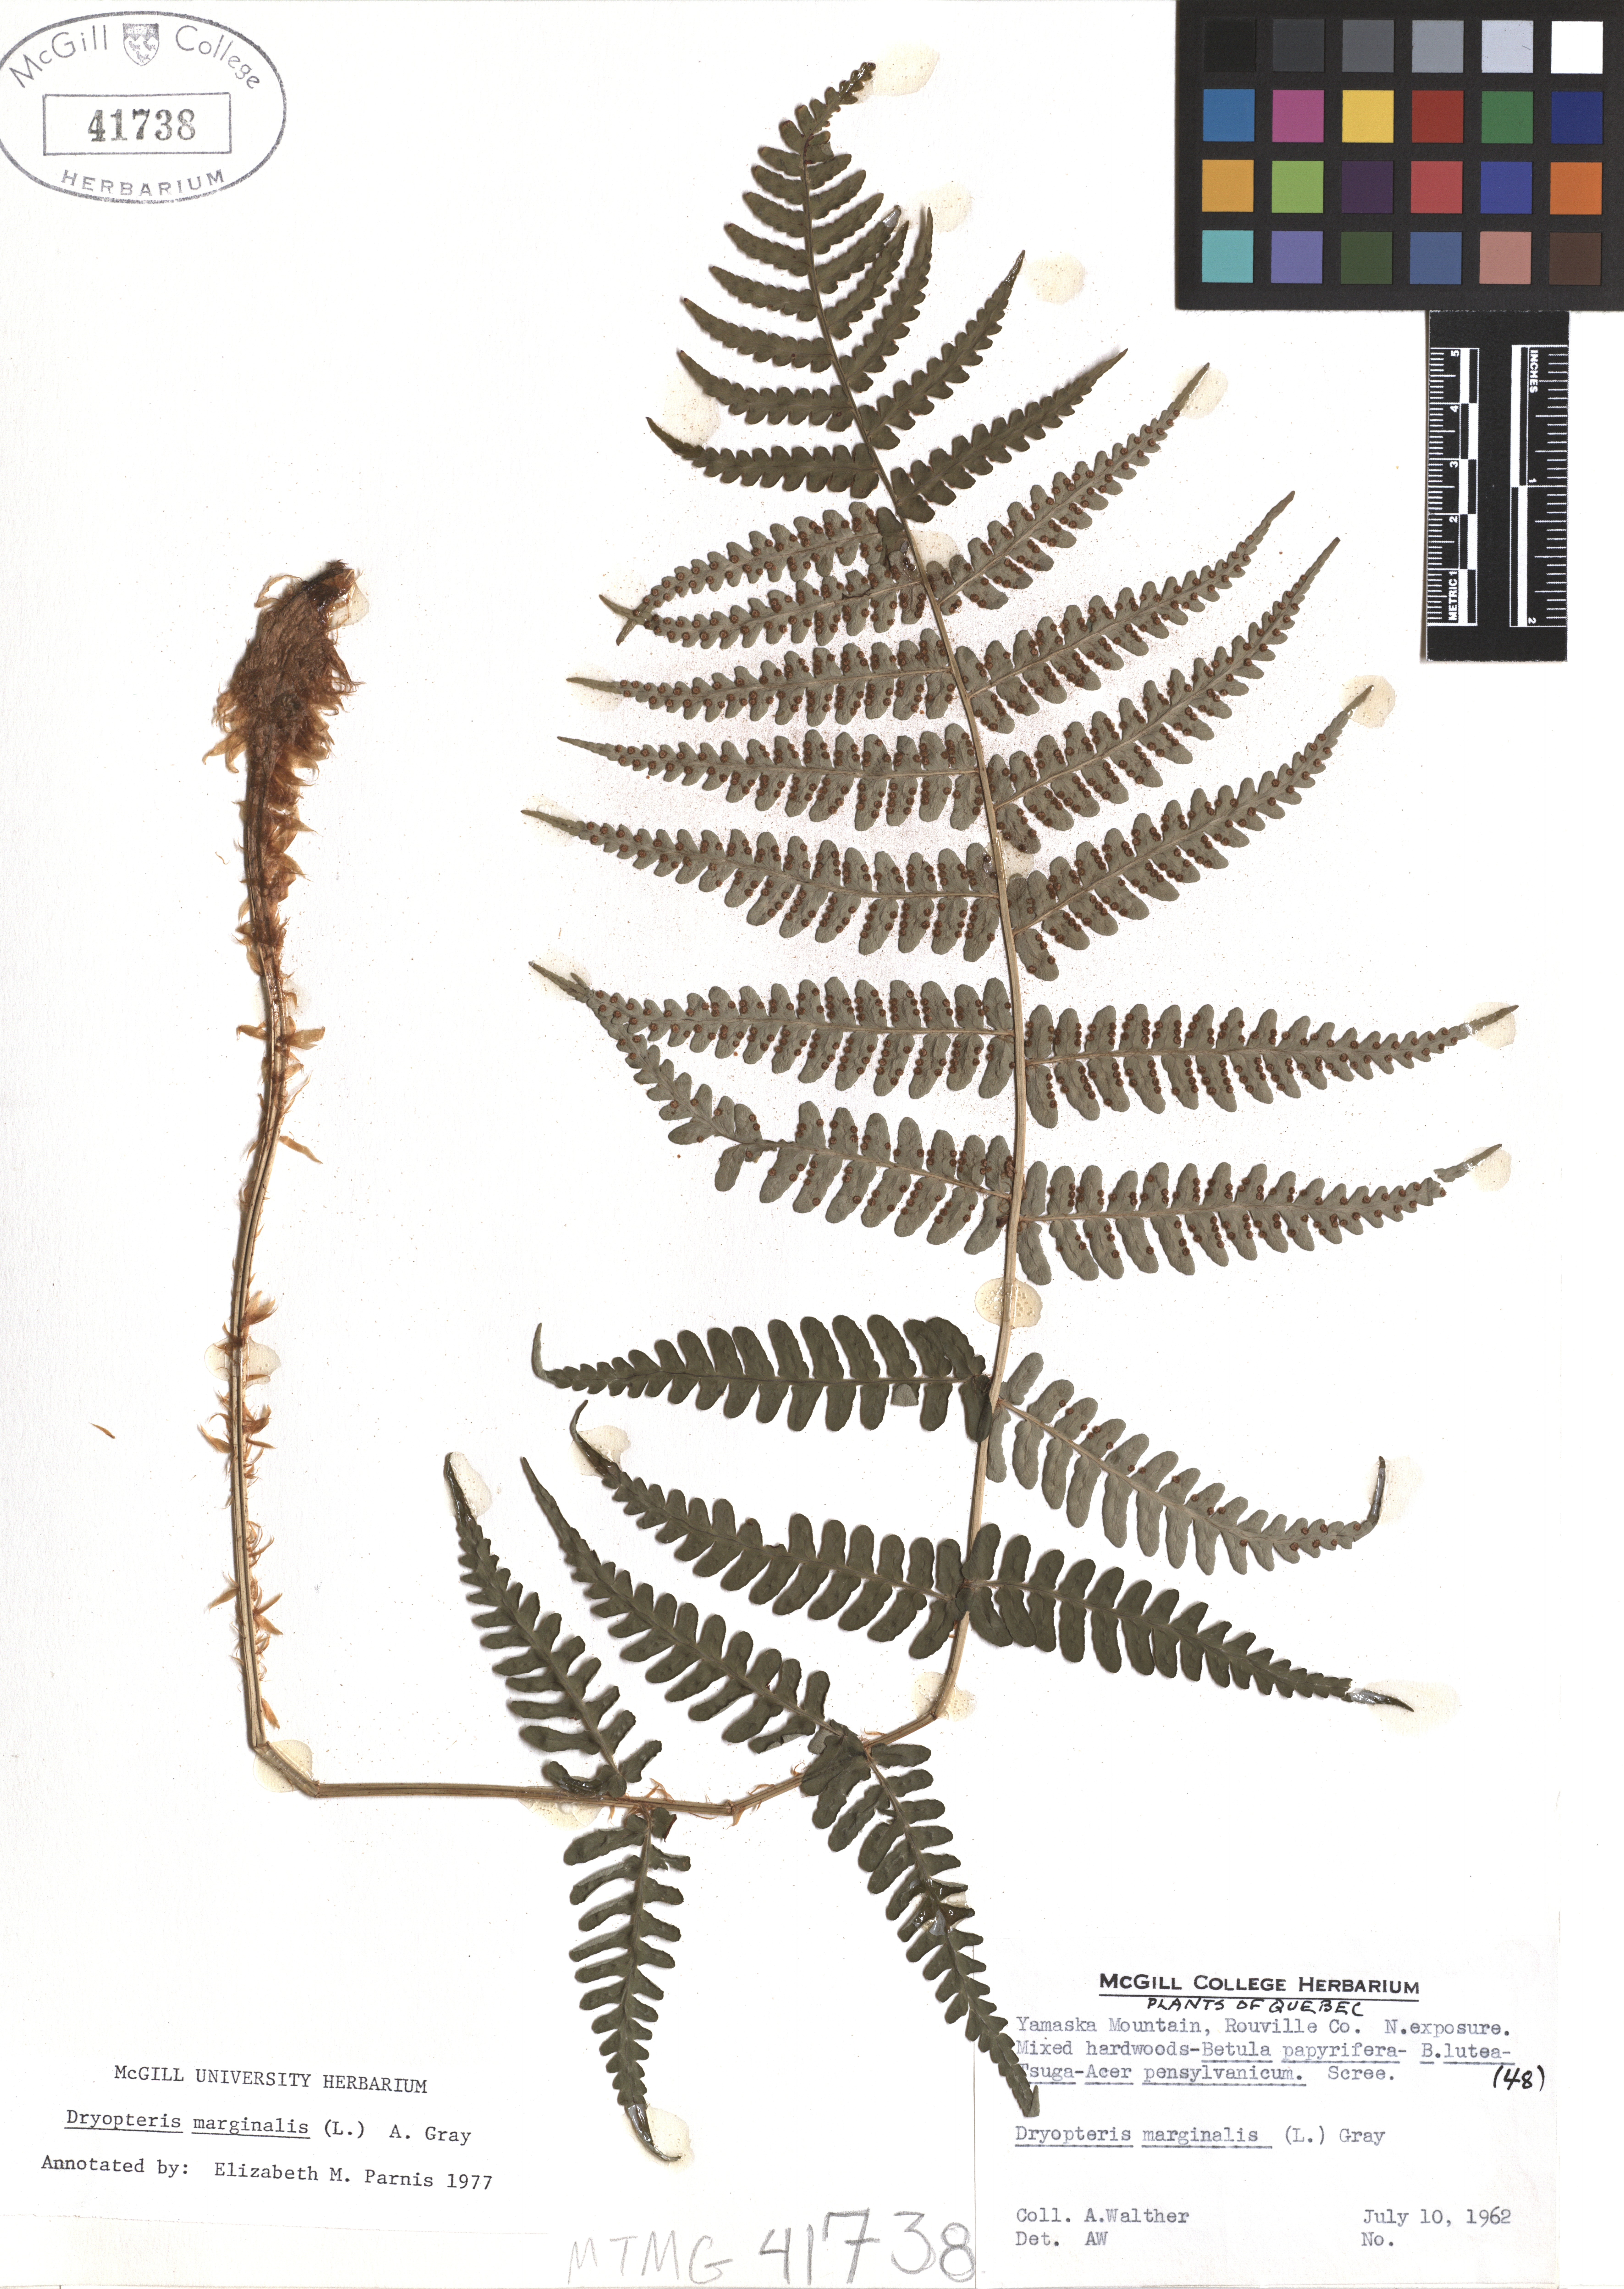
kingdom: Plantae
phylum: Tracheophyta
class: Polypodiopsida
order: Polypodiales
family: Dryopteridaceae
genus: Dryopteris
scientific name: Dryopteris marginalis
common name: Marginal wood fern
